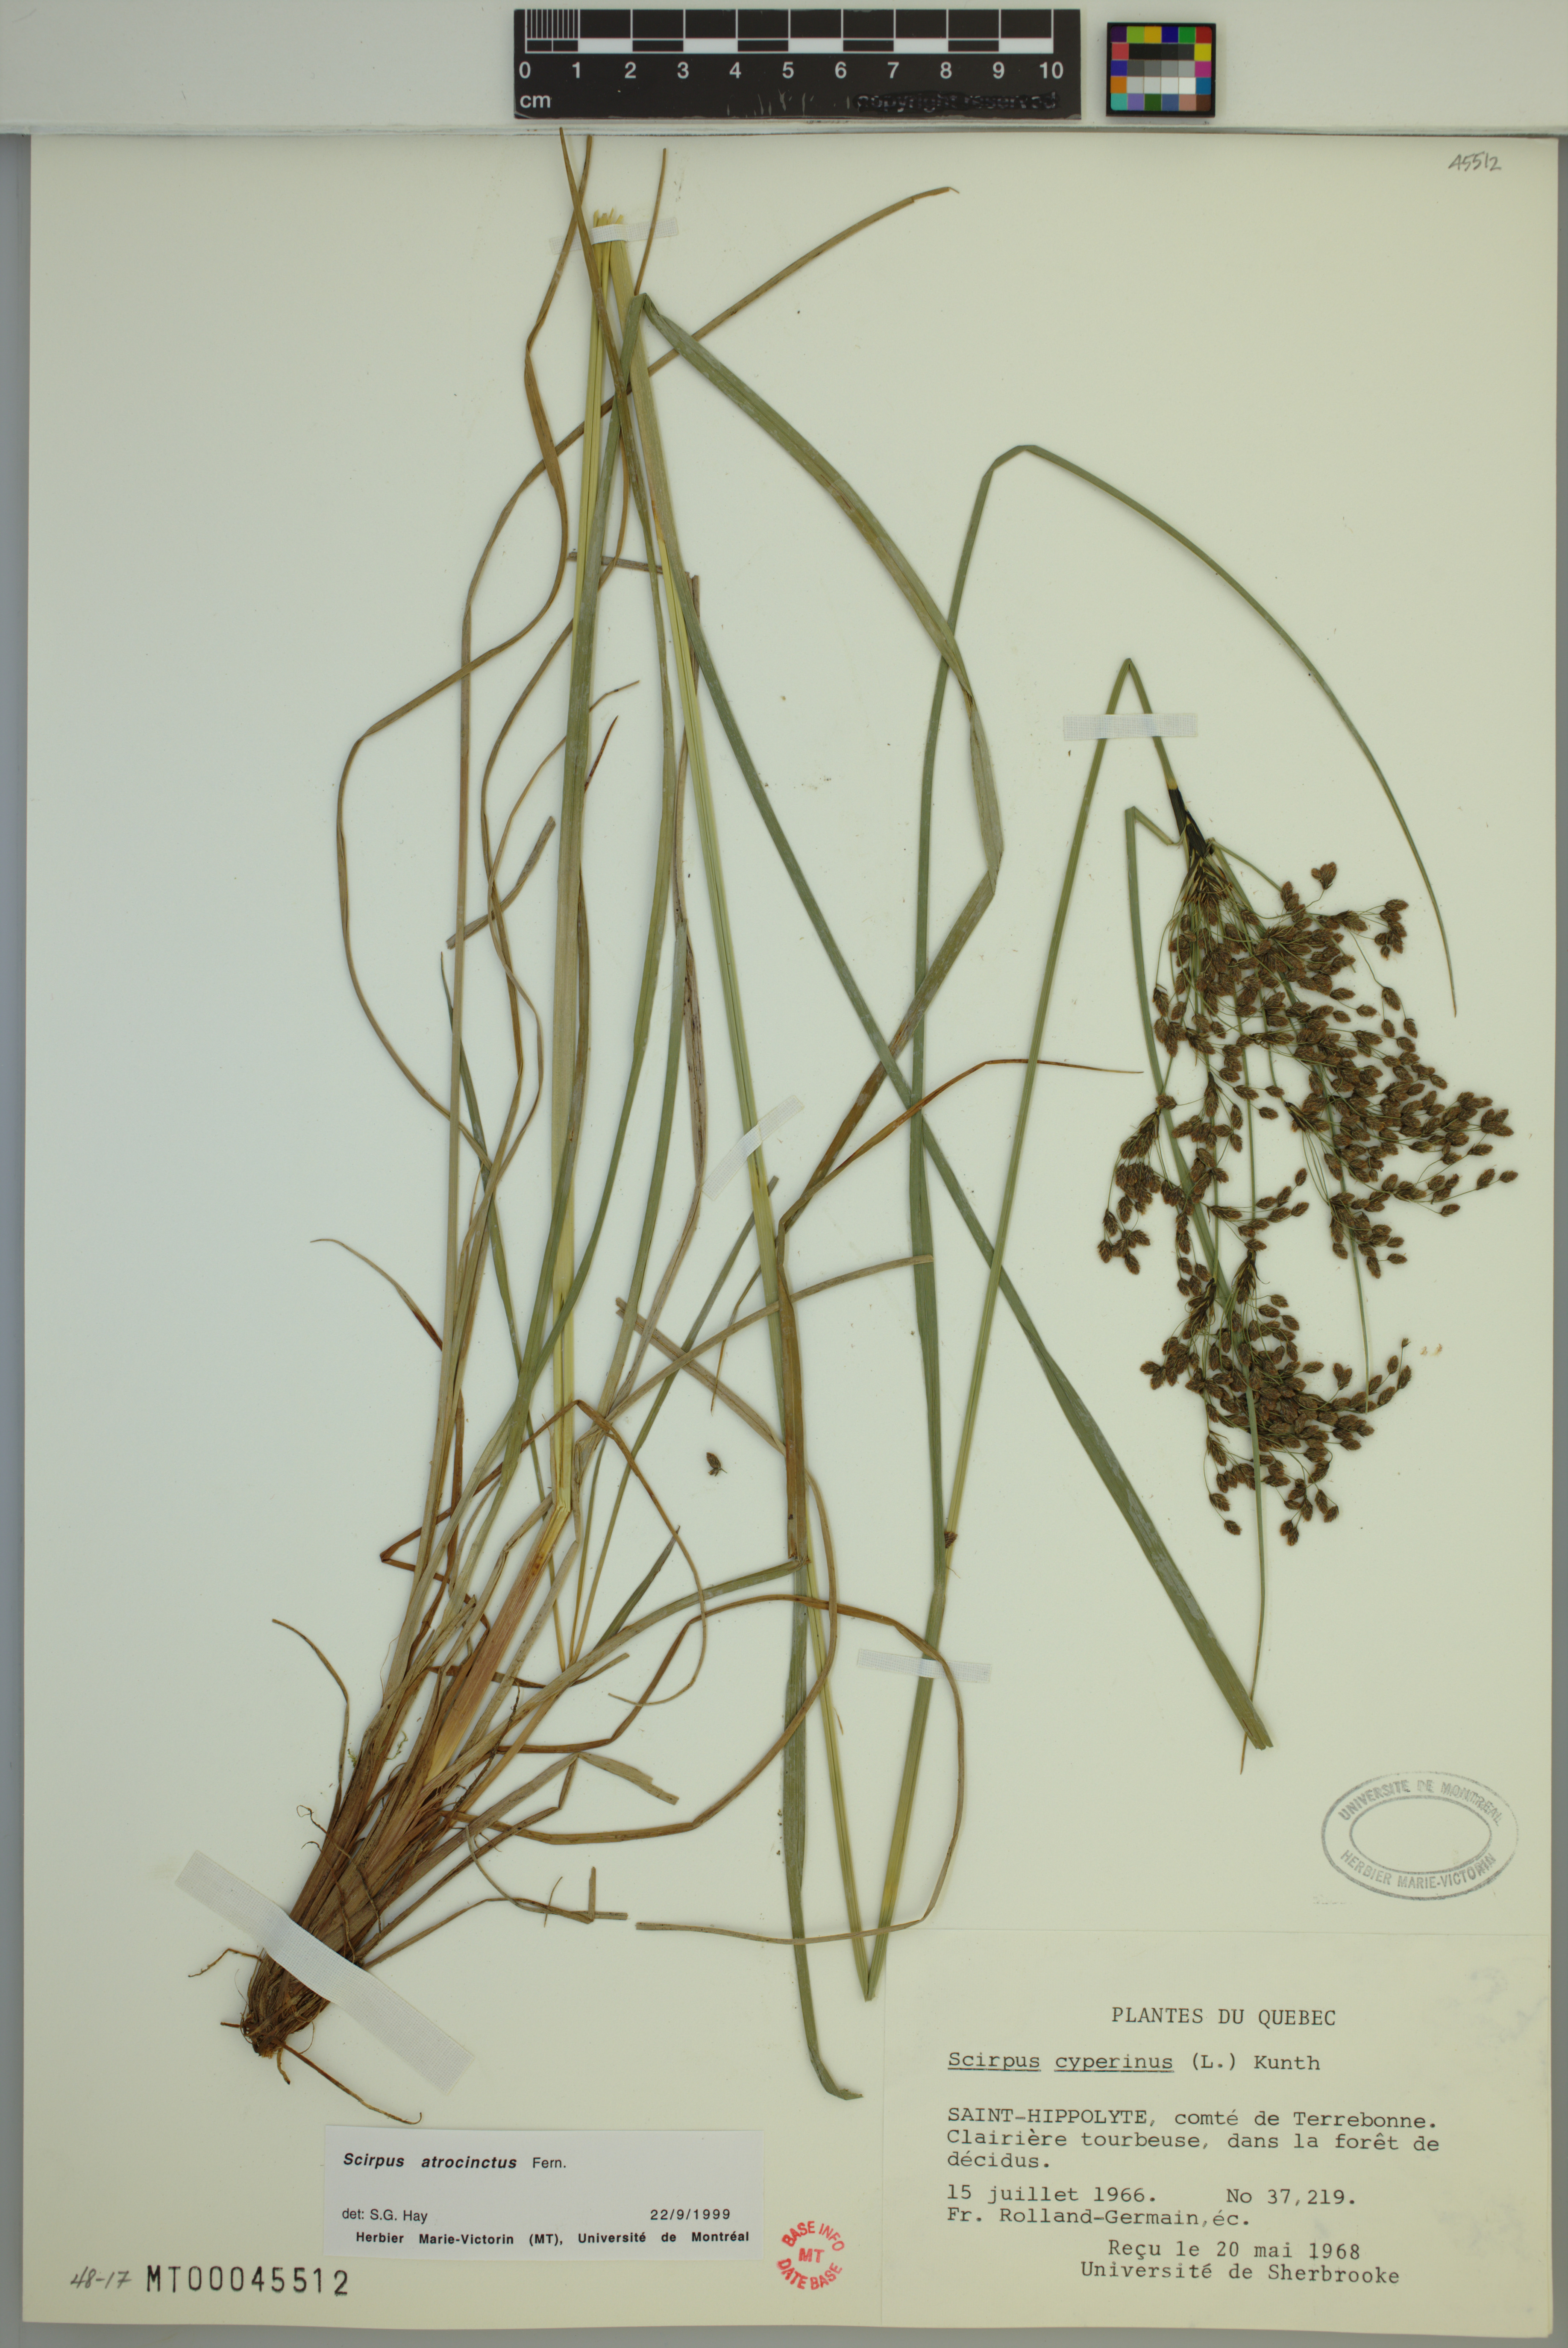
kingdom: Plantae
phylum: Tracheophyta
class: Liliopsida
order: Poales
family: Cyperaceae
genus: Scirpus
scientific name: Scirpus atrocinctus
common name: Black-girdled bulrush
